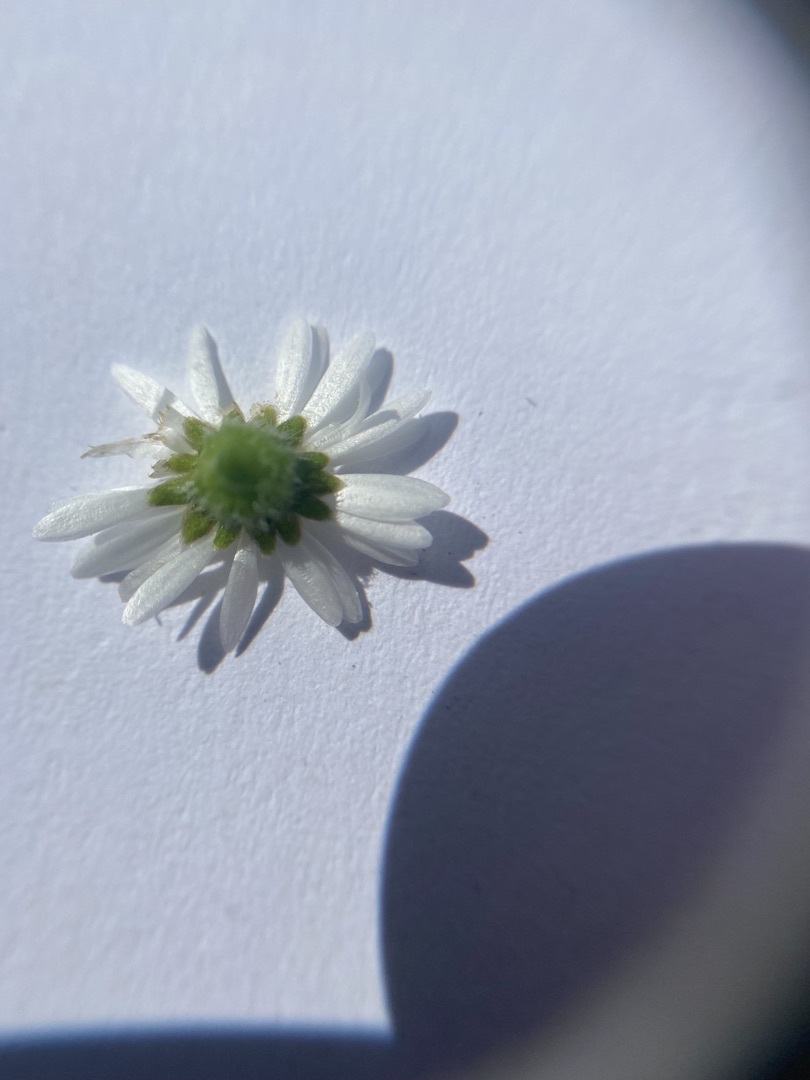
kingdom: Plantae
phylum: Tracheophyta
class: Magnoliopsida
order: Asterales
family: Asteraceae
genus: Bellis
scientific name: Bellis perennis
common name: Tusindfryd
